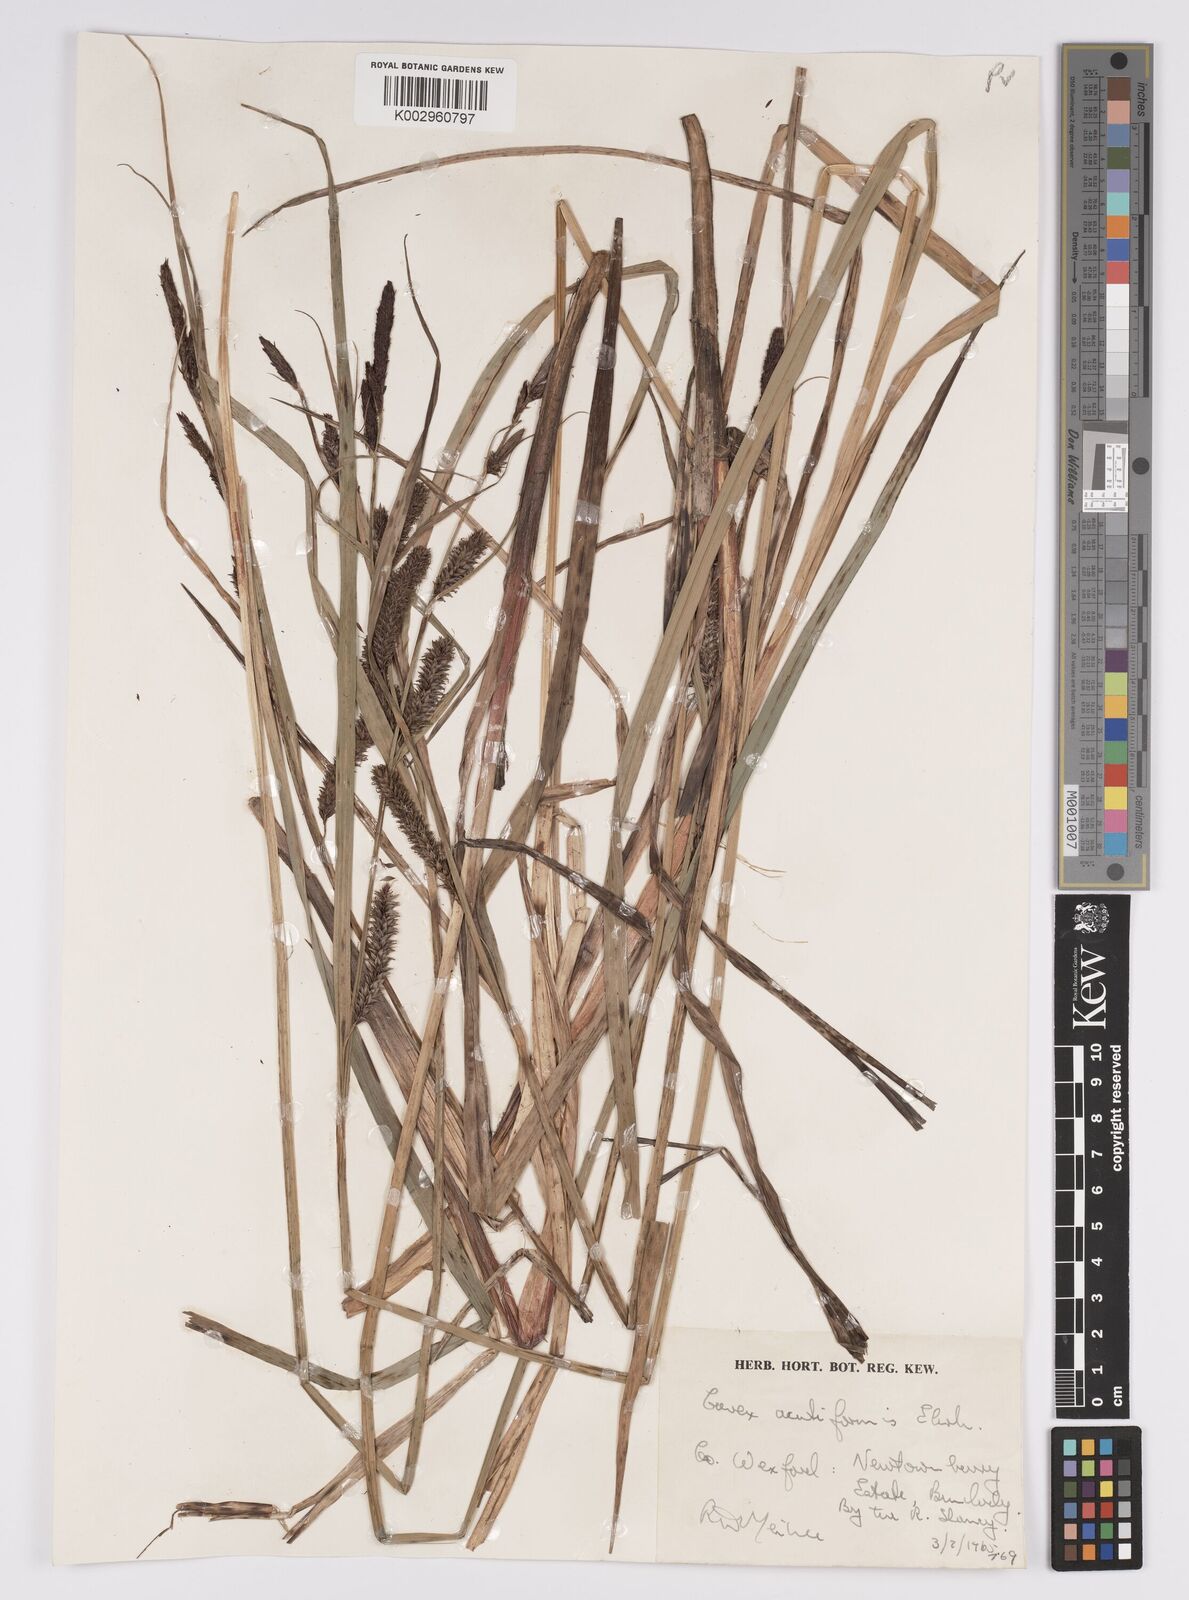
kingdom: Plantae
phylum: Tracheophyta
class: Liliopsida
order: Poales
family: Cyperaceae
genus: Carex
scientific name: Carex acutiformis
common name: Lesser pond-sedge
